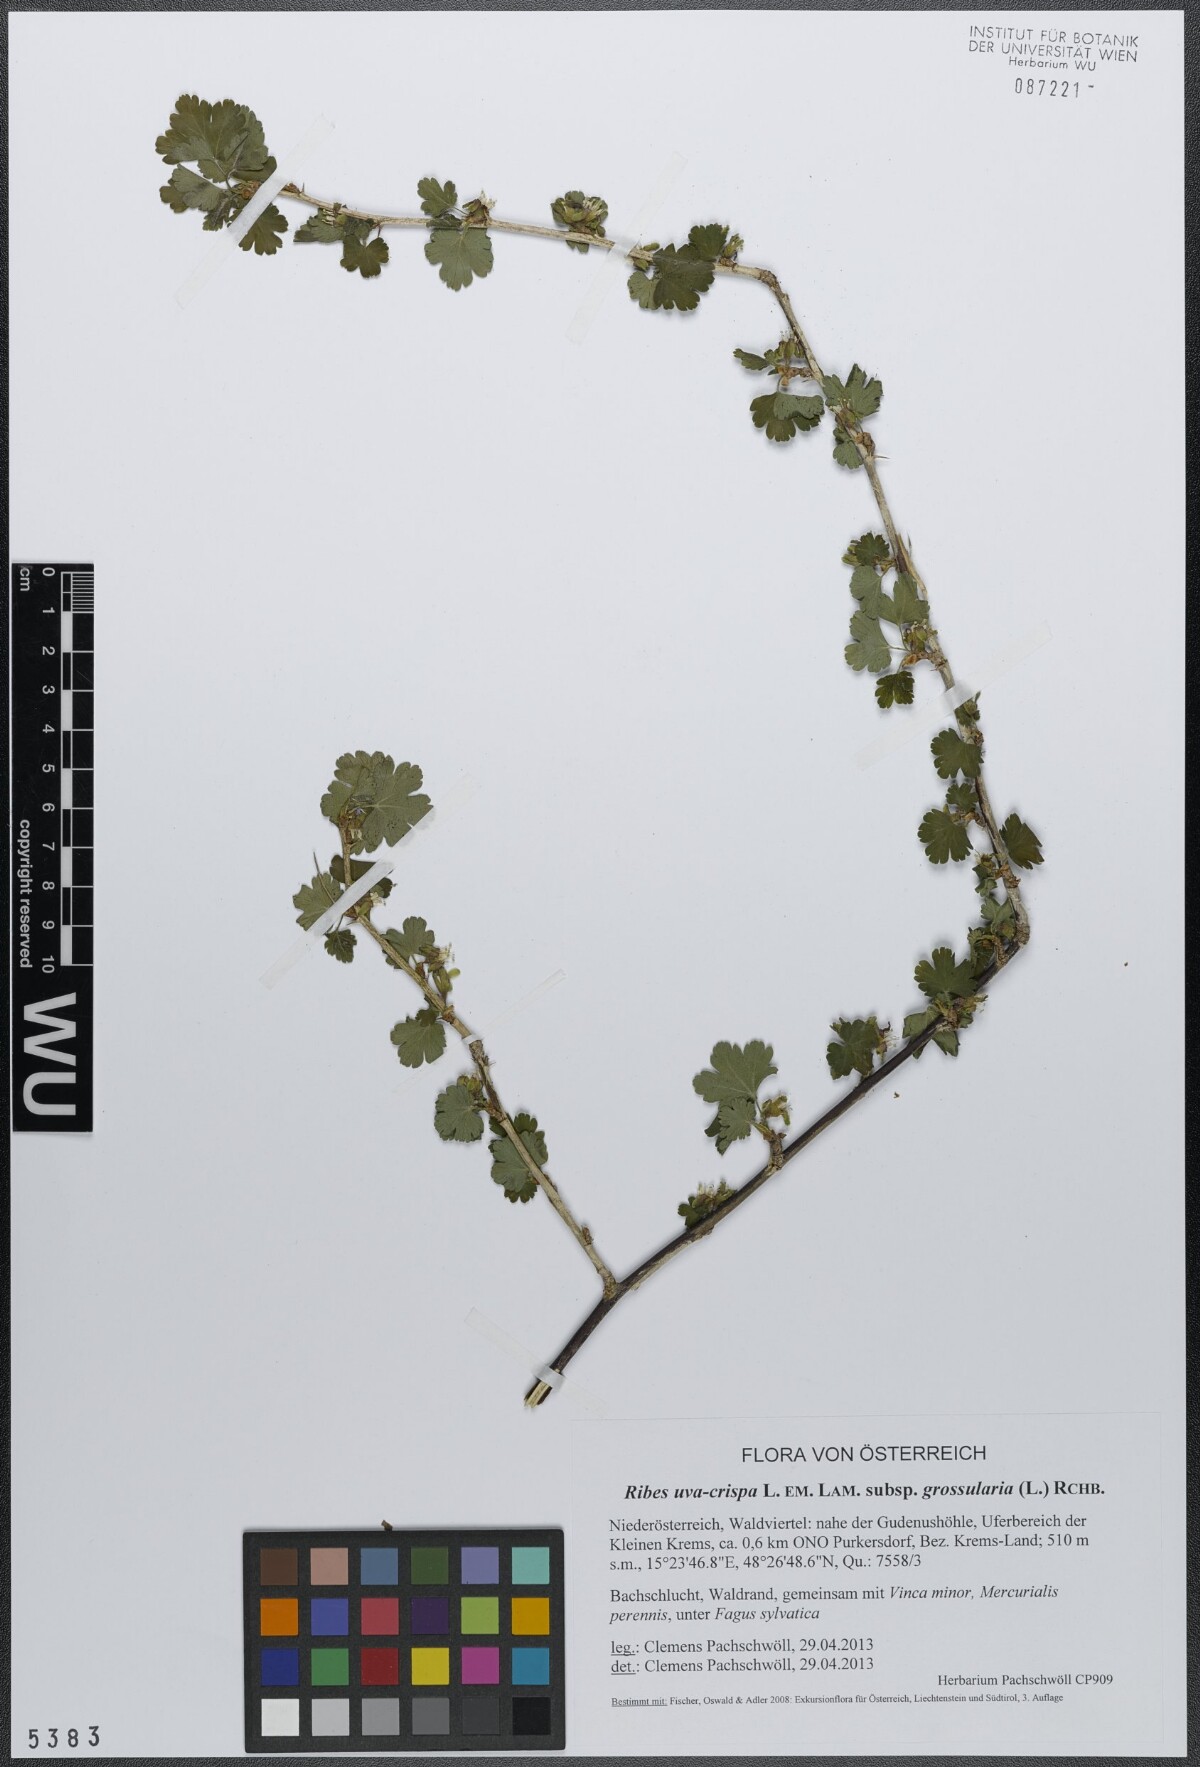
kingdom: Plantae
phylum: Tracheophyta
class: Magnoliopsida
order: Saxifragales
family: Grossulariaceae
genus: Ribes
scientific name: Ribes uva-crispa
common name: Gooseberry
